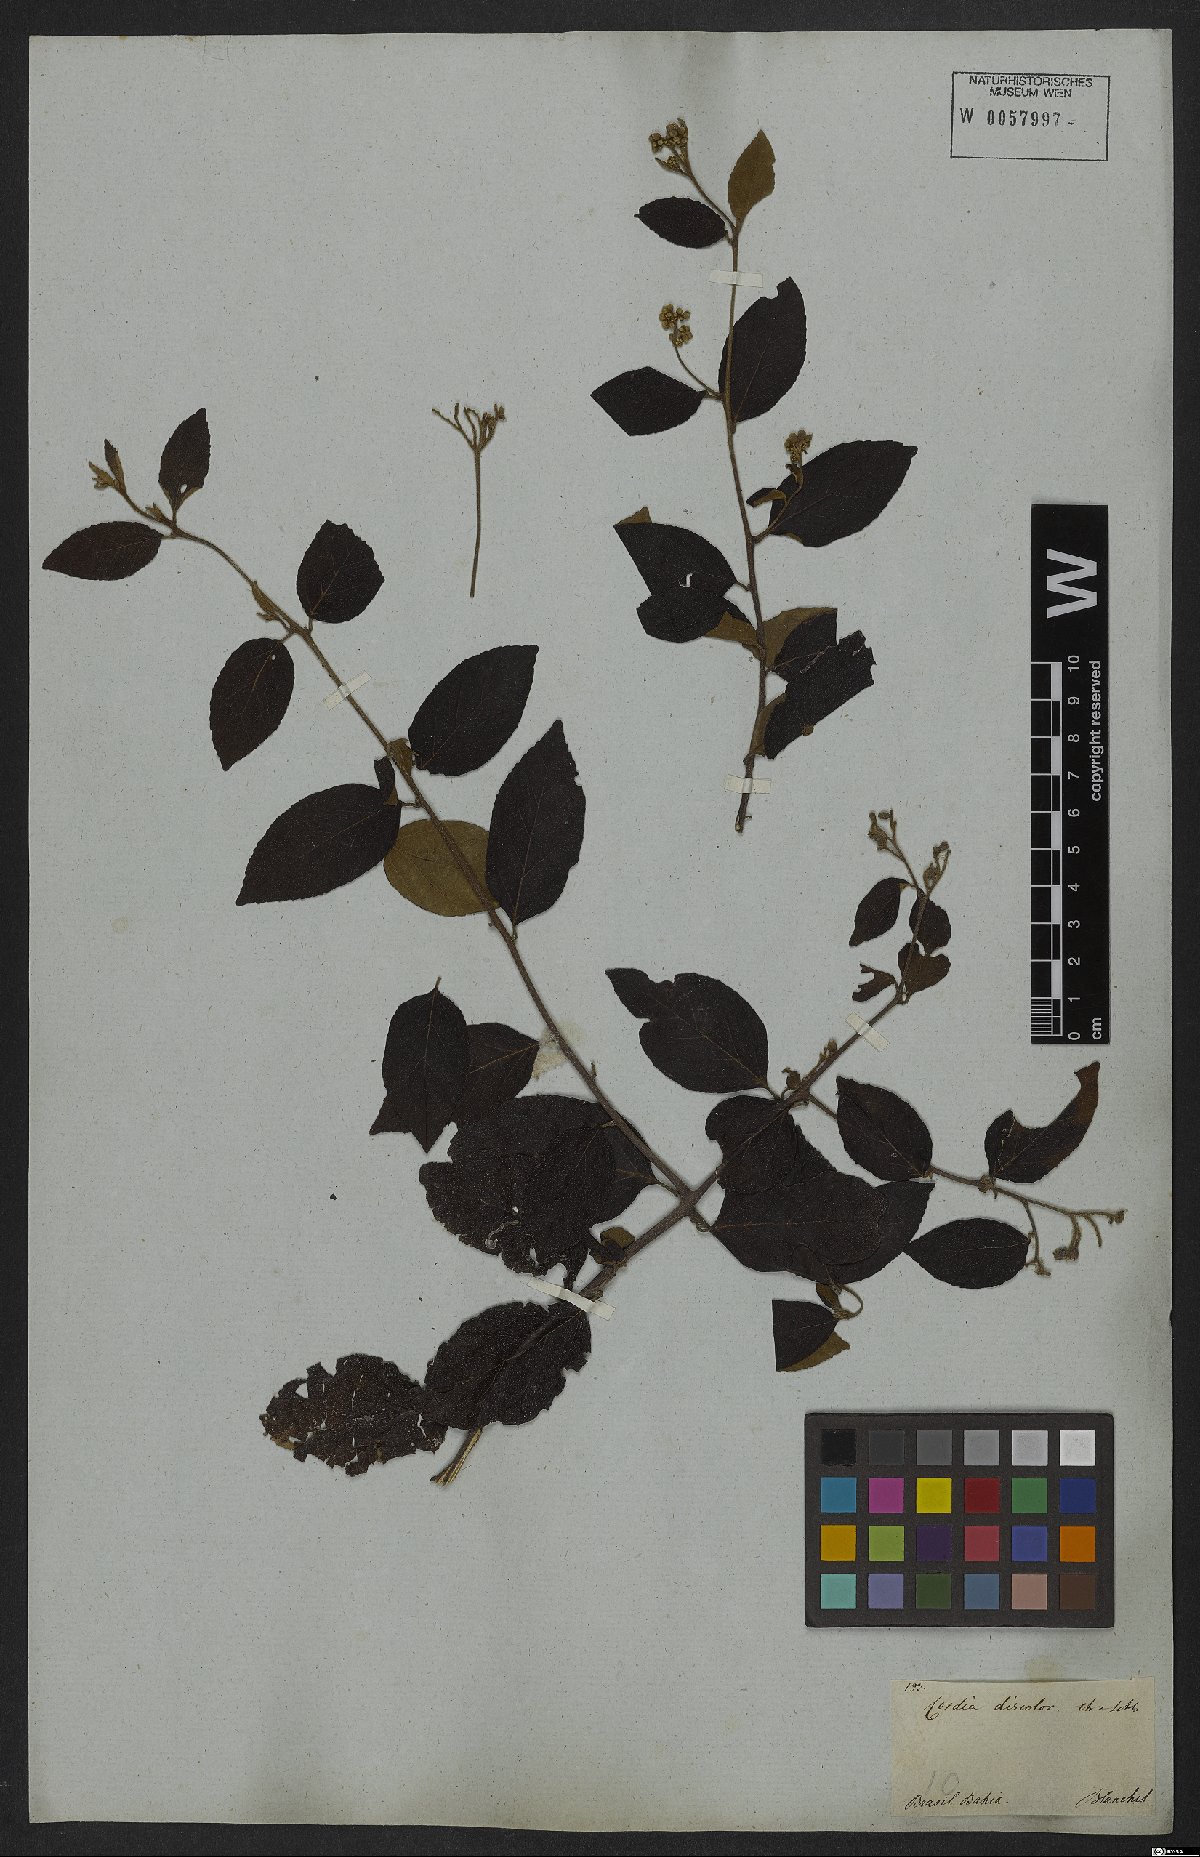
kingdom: Plantae
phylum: Tracheophyta
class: Magnoliopsida
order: Boraginales
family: Cordiaceae
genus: Varronia
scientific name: Varronia discolor
